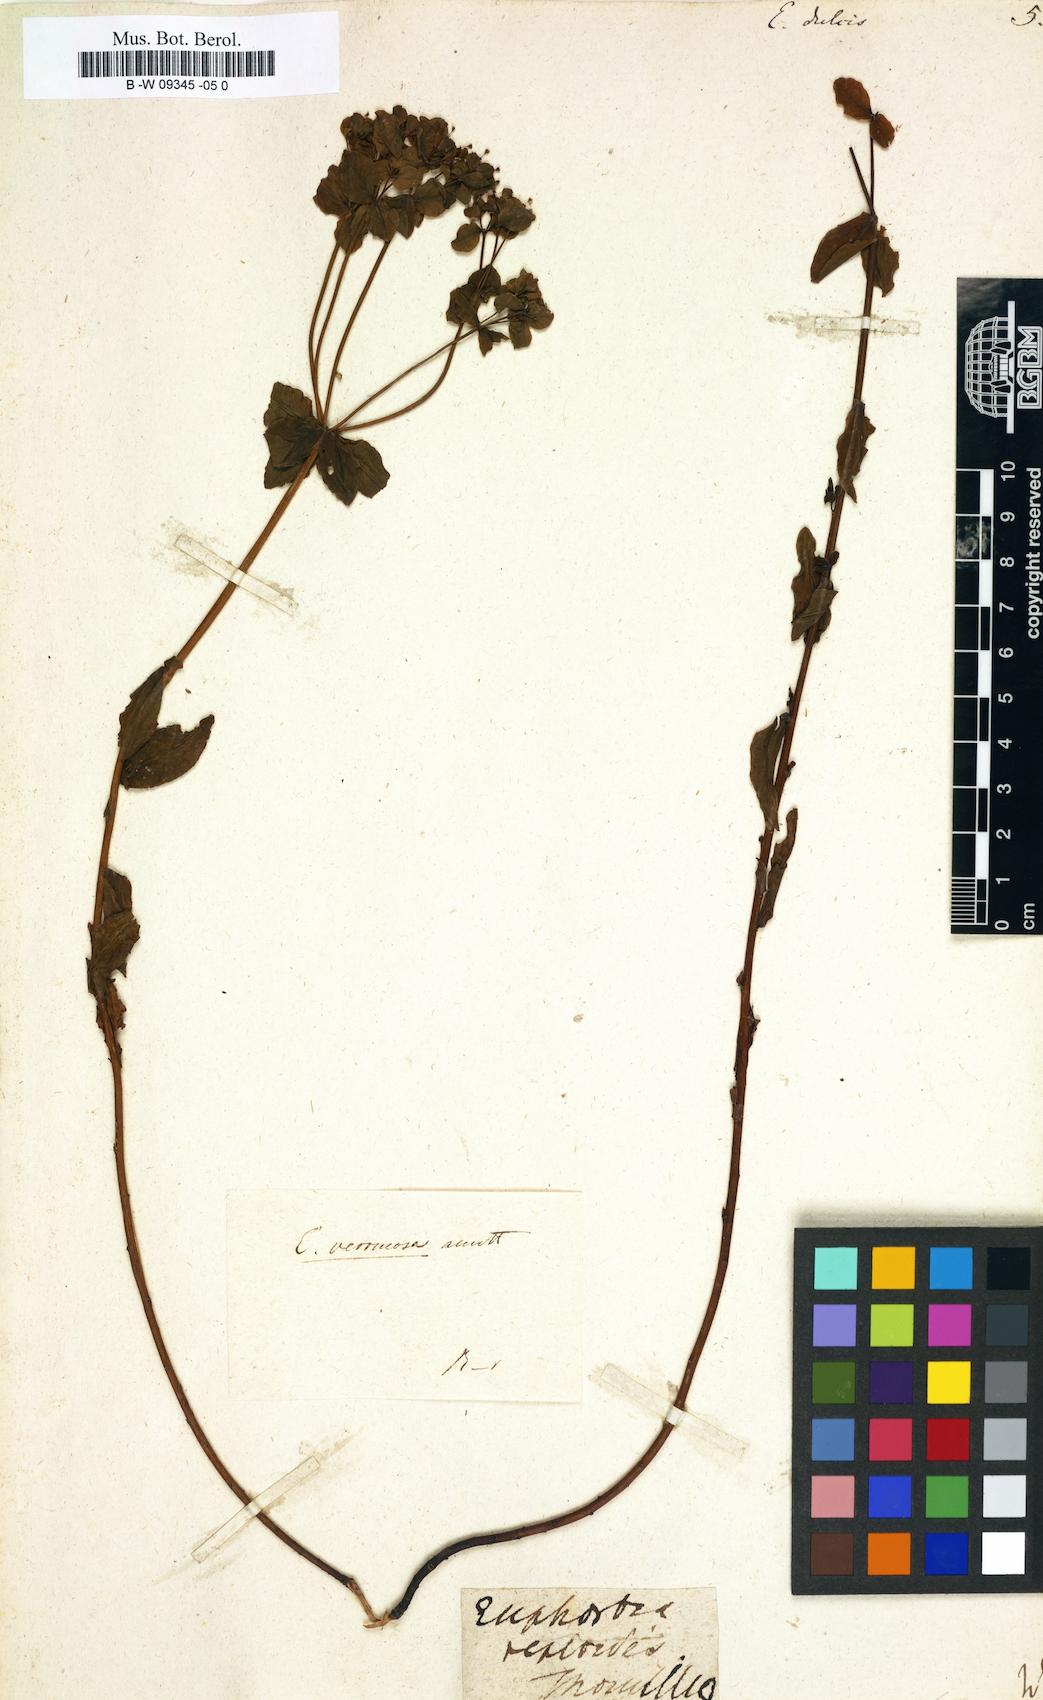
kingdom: Plantae
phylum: Tracheophyta
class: Magnoliopsida
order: Malpighiales
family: Euphorbiaceae
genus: Euphorbia
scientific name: Euphorbia dulcis
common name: Sweet spurge
